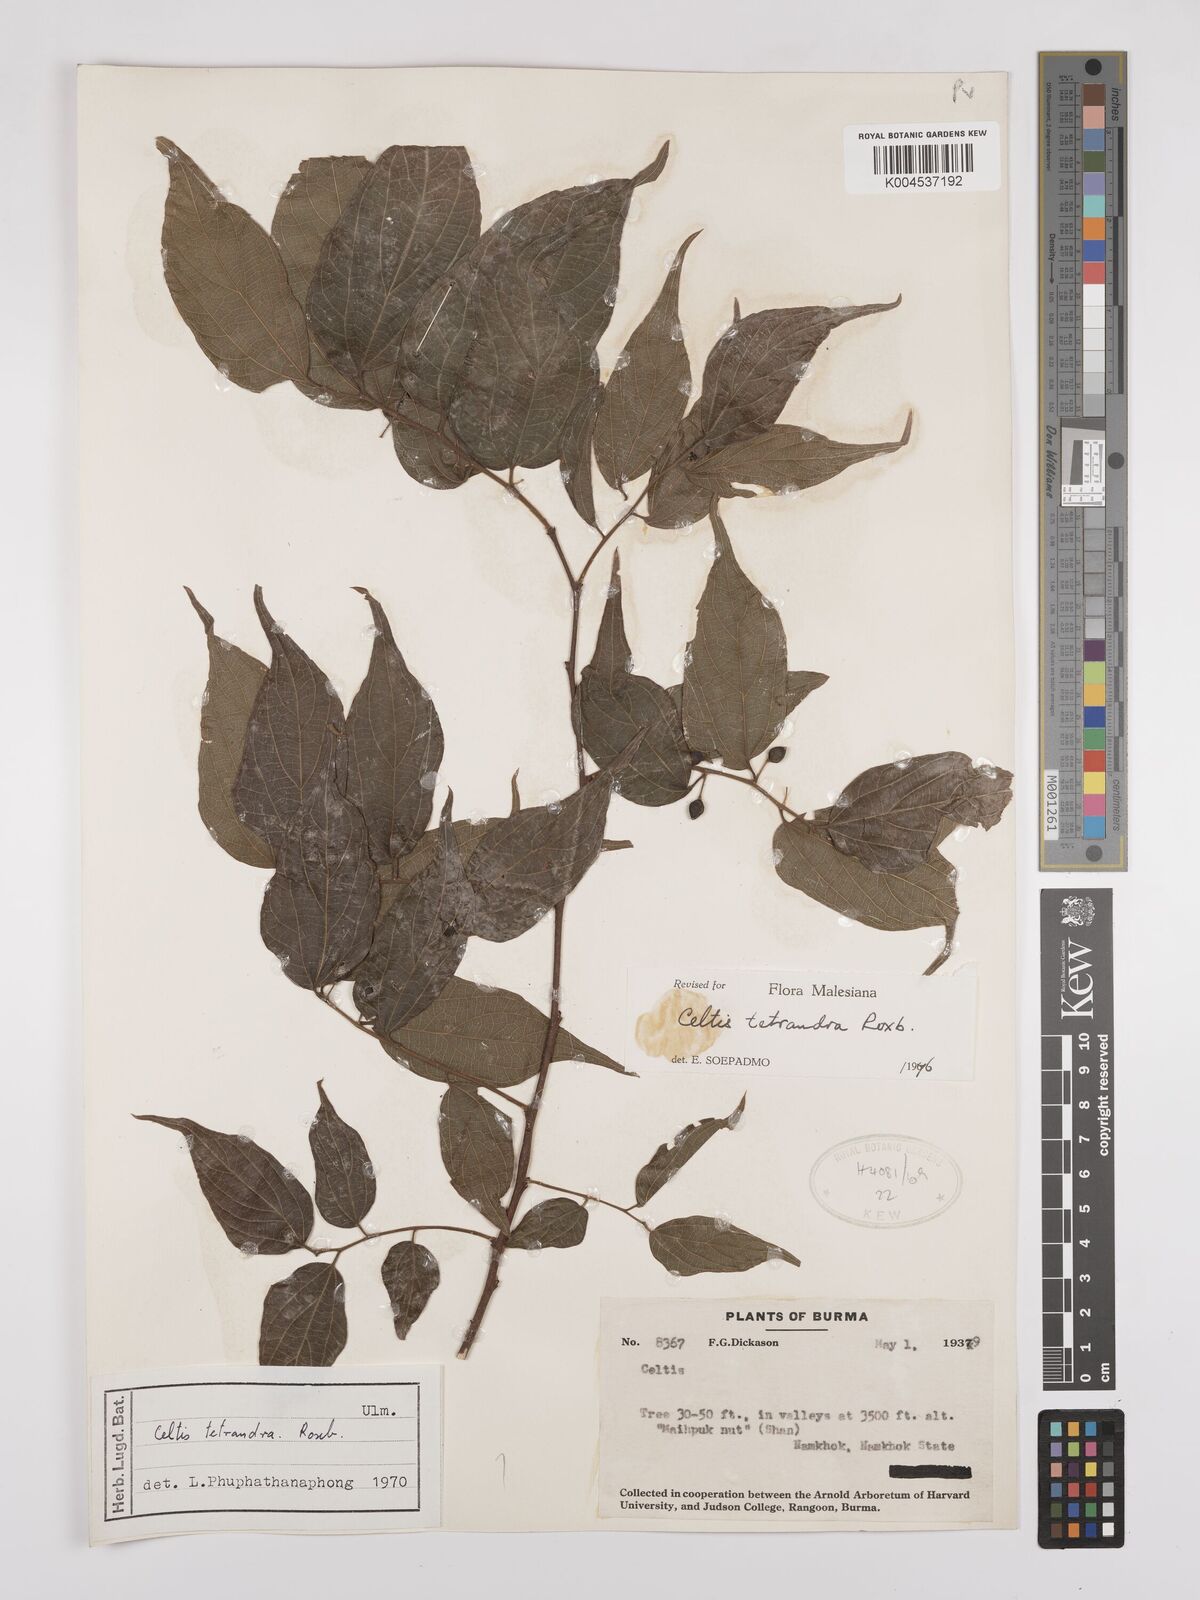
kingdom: Plantae
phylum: Tracheophyta
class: Magnoliopsida
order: Rosales
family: Cannabaceae
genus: Celtis
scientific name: Celtis tetrandra
